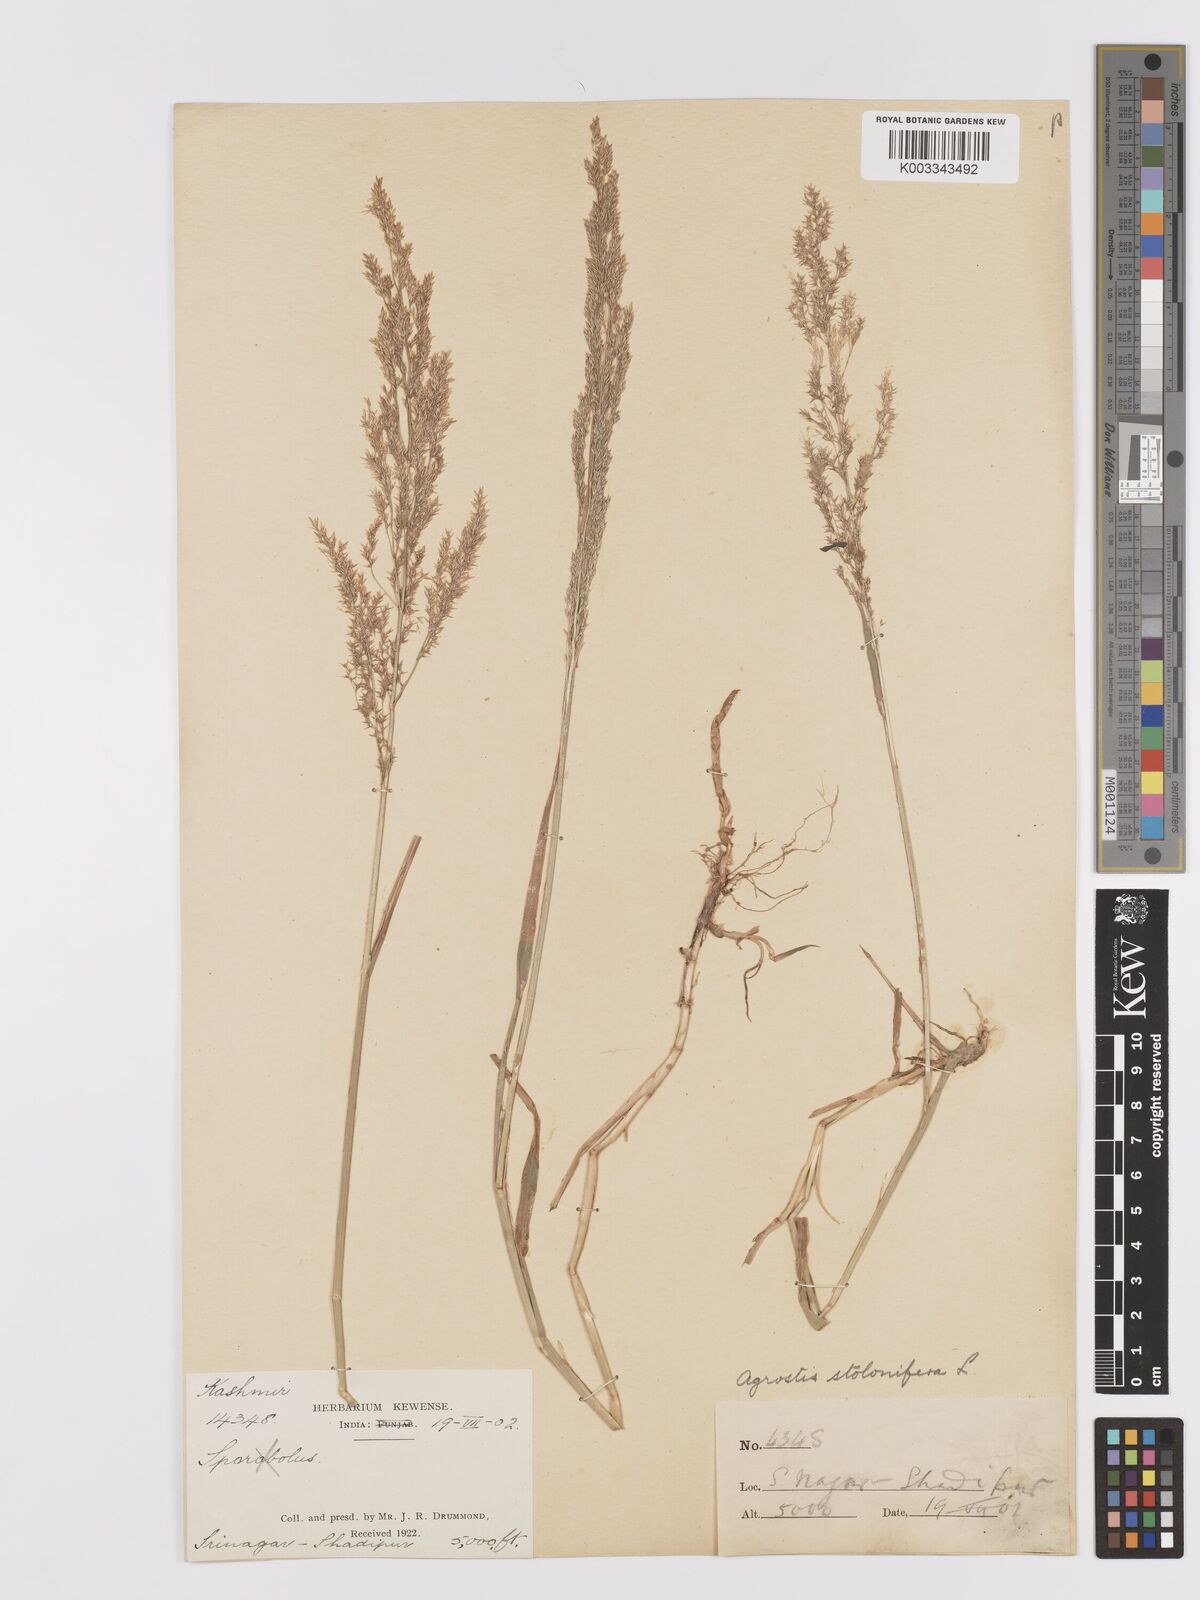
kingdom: Plantae
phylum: Tracheophyta
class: Liliopsida
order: Poales
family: Poaceae
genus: Agrostis
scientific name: Agrostis gigantea
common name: Black bent
